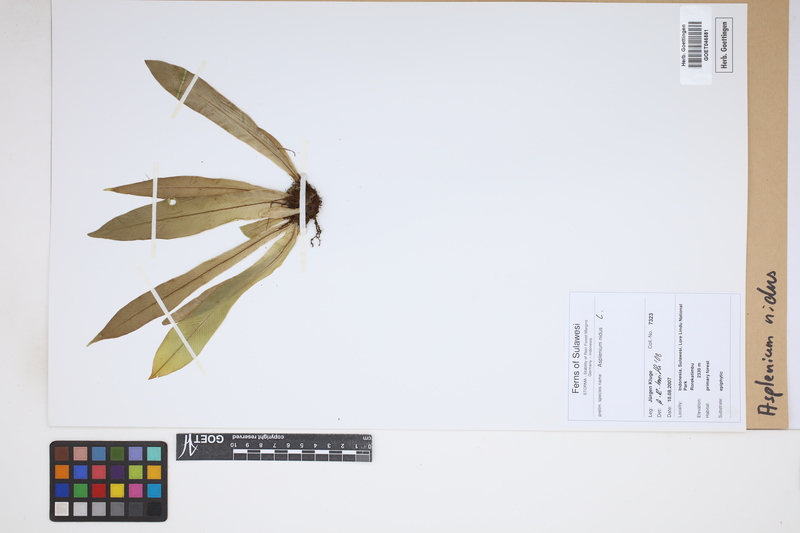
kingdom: Plantae
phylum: Tracheophyta
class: Polypodiopsida
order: Polypodiales
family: Aspleniaceae
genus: Asplenium
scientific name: Asplenium nidus
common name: Bird's-nest fern
